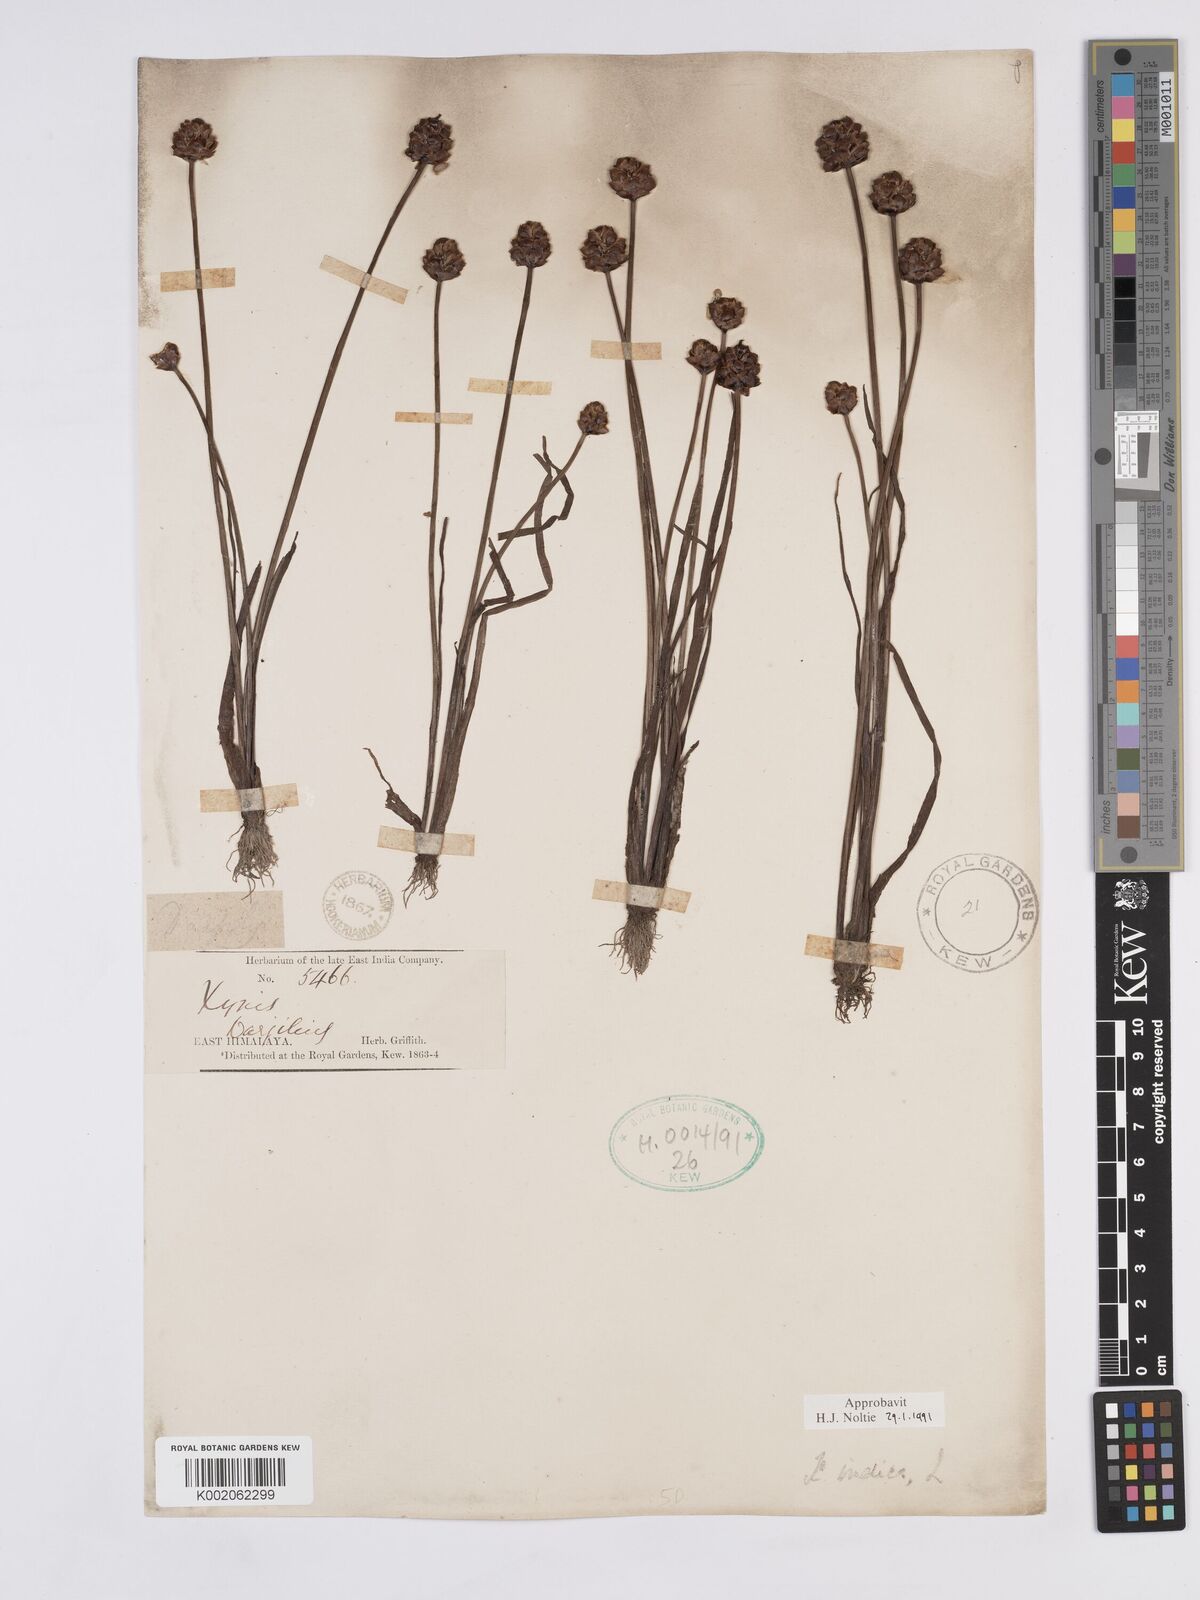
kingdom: Plantae
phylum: Tracheophyta
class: Liliopsida
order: Poales
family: Xyridaceae
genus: Xyris
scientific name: Xyris indica
